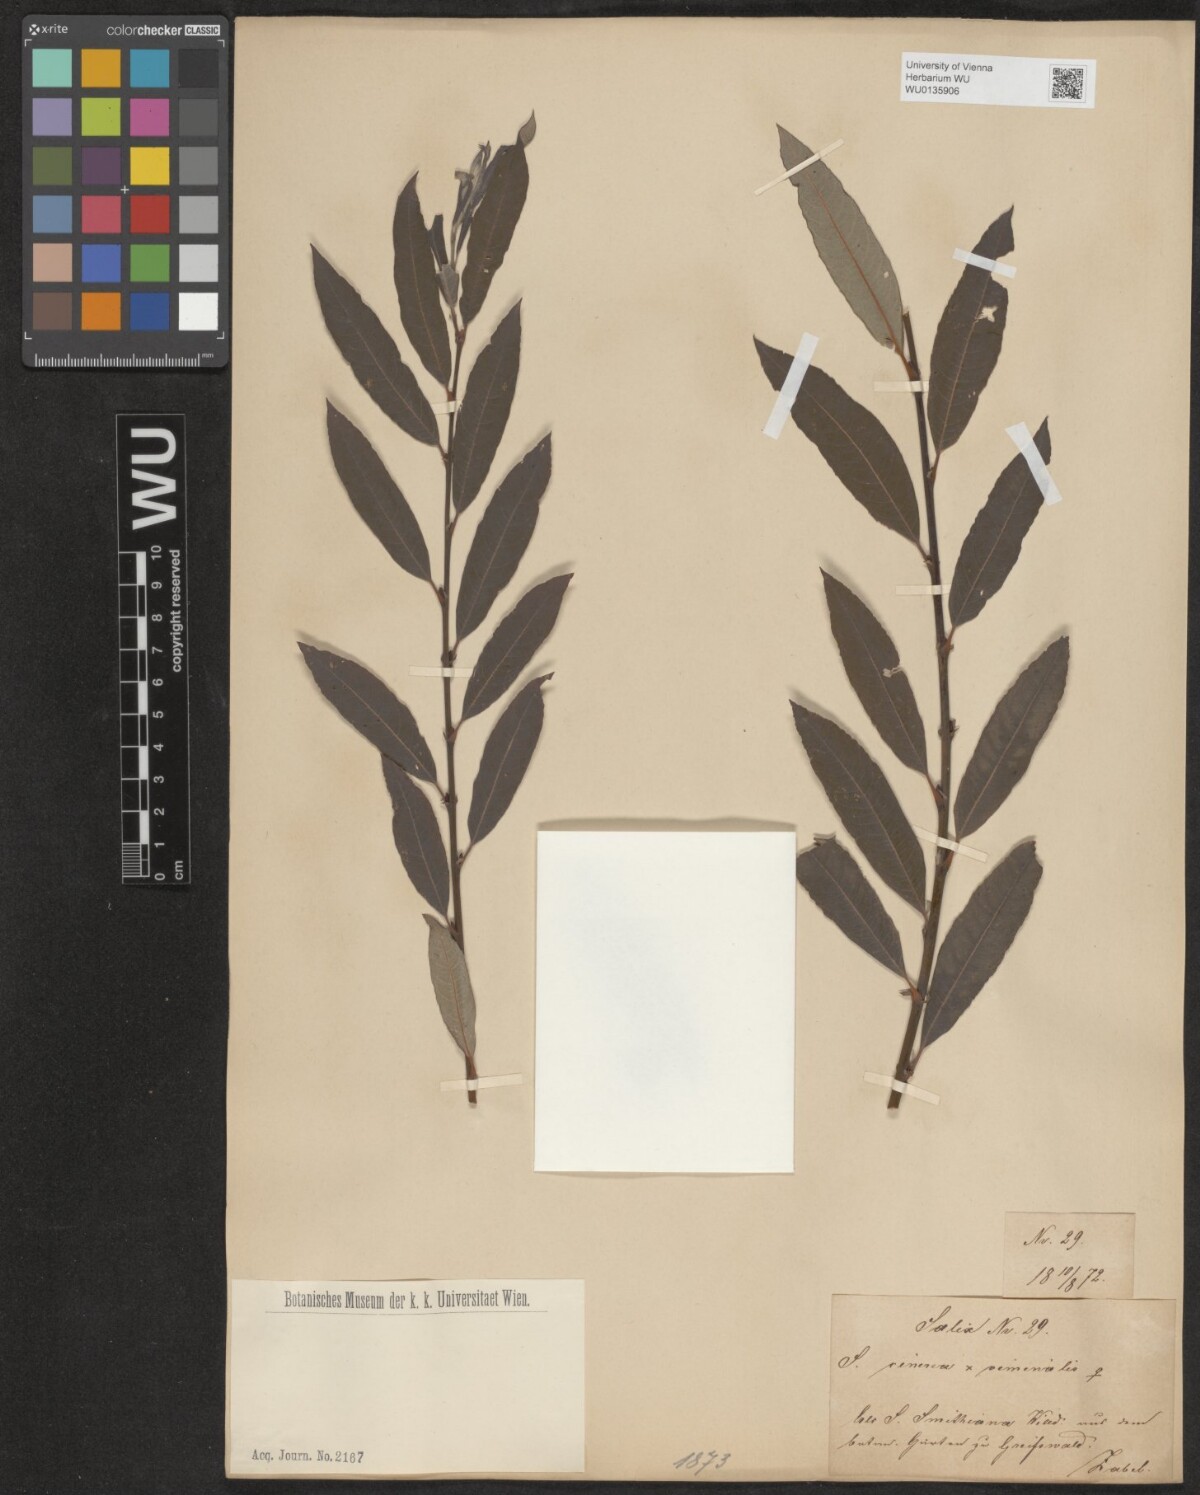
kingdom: Plantae
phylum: Tracheophyta
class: Magnoliopsida
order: Malpighiales
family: Salicaceae
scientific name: Salicaceae
